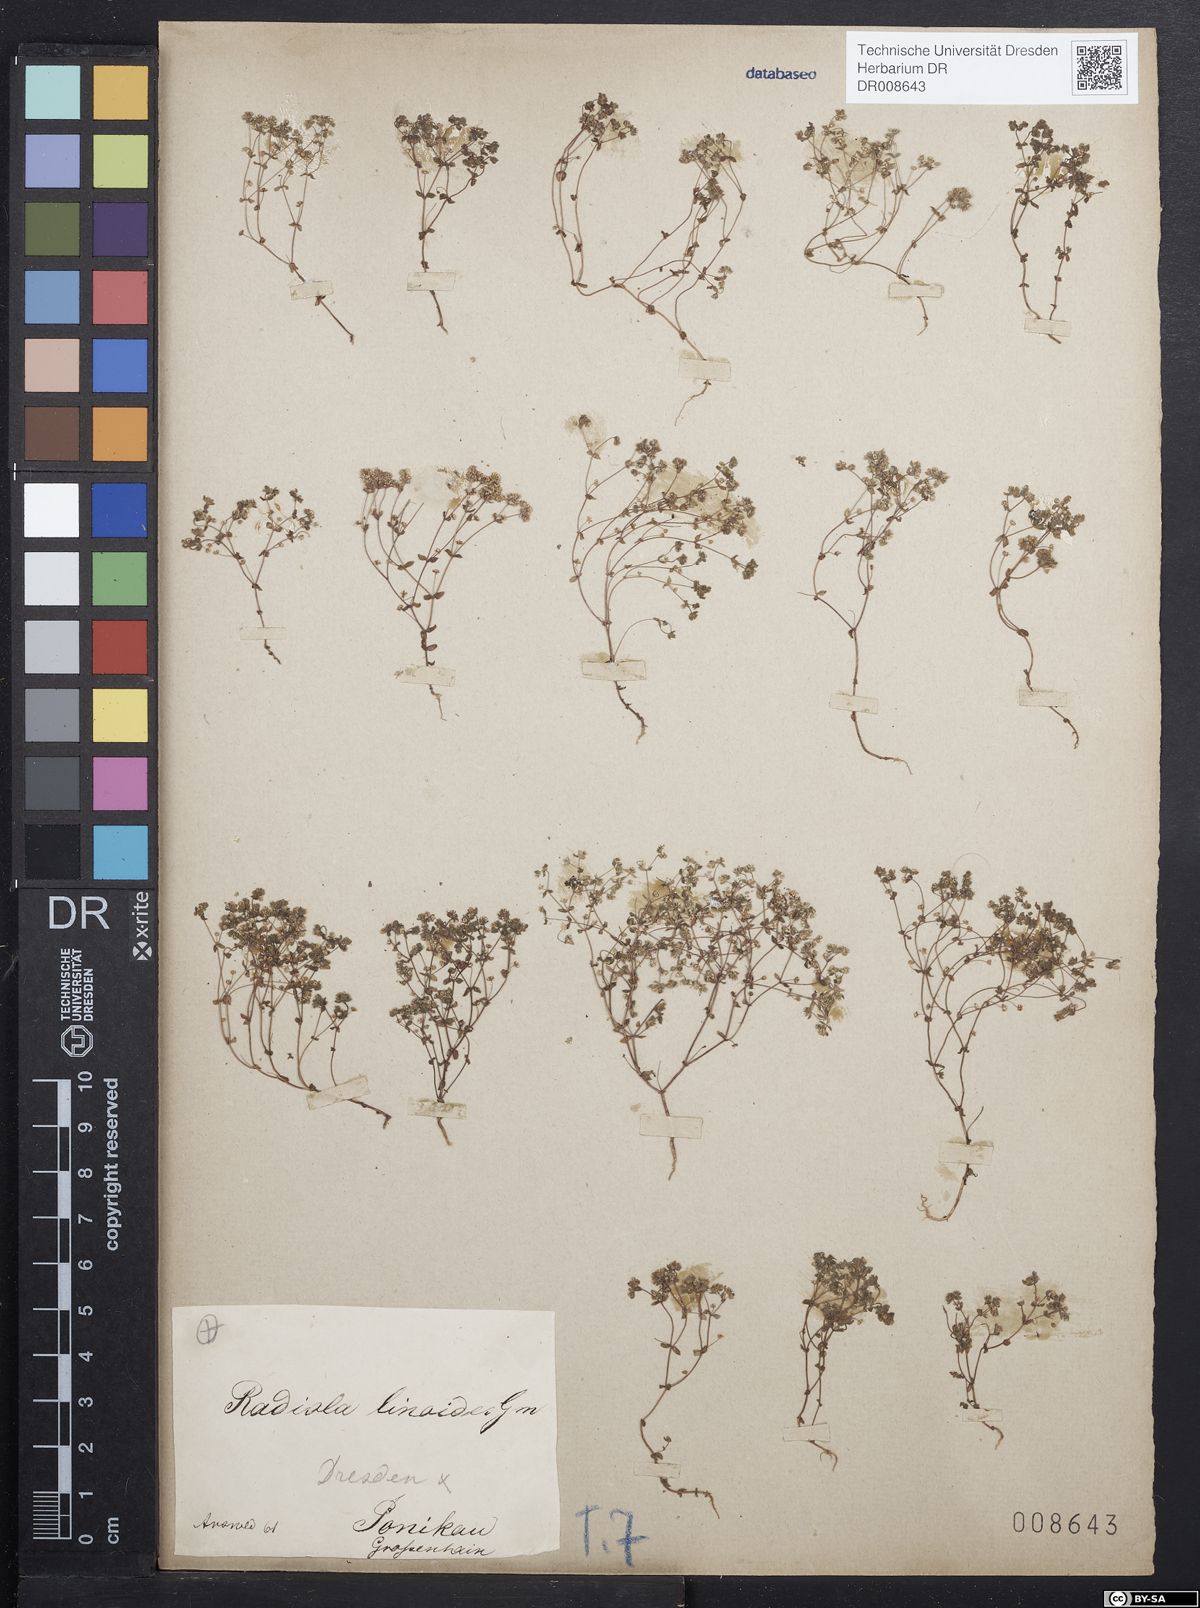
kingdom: Plantae
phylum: Tracheophyta
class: Magnoliopsida
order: Malpighiales
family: Linaceae
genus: Radiola
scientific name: Radiola linoides
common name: Allseed
